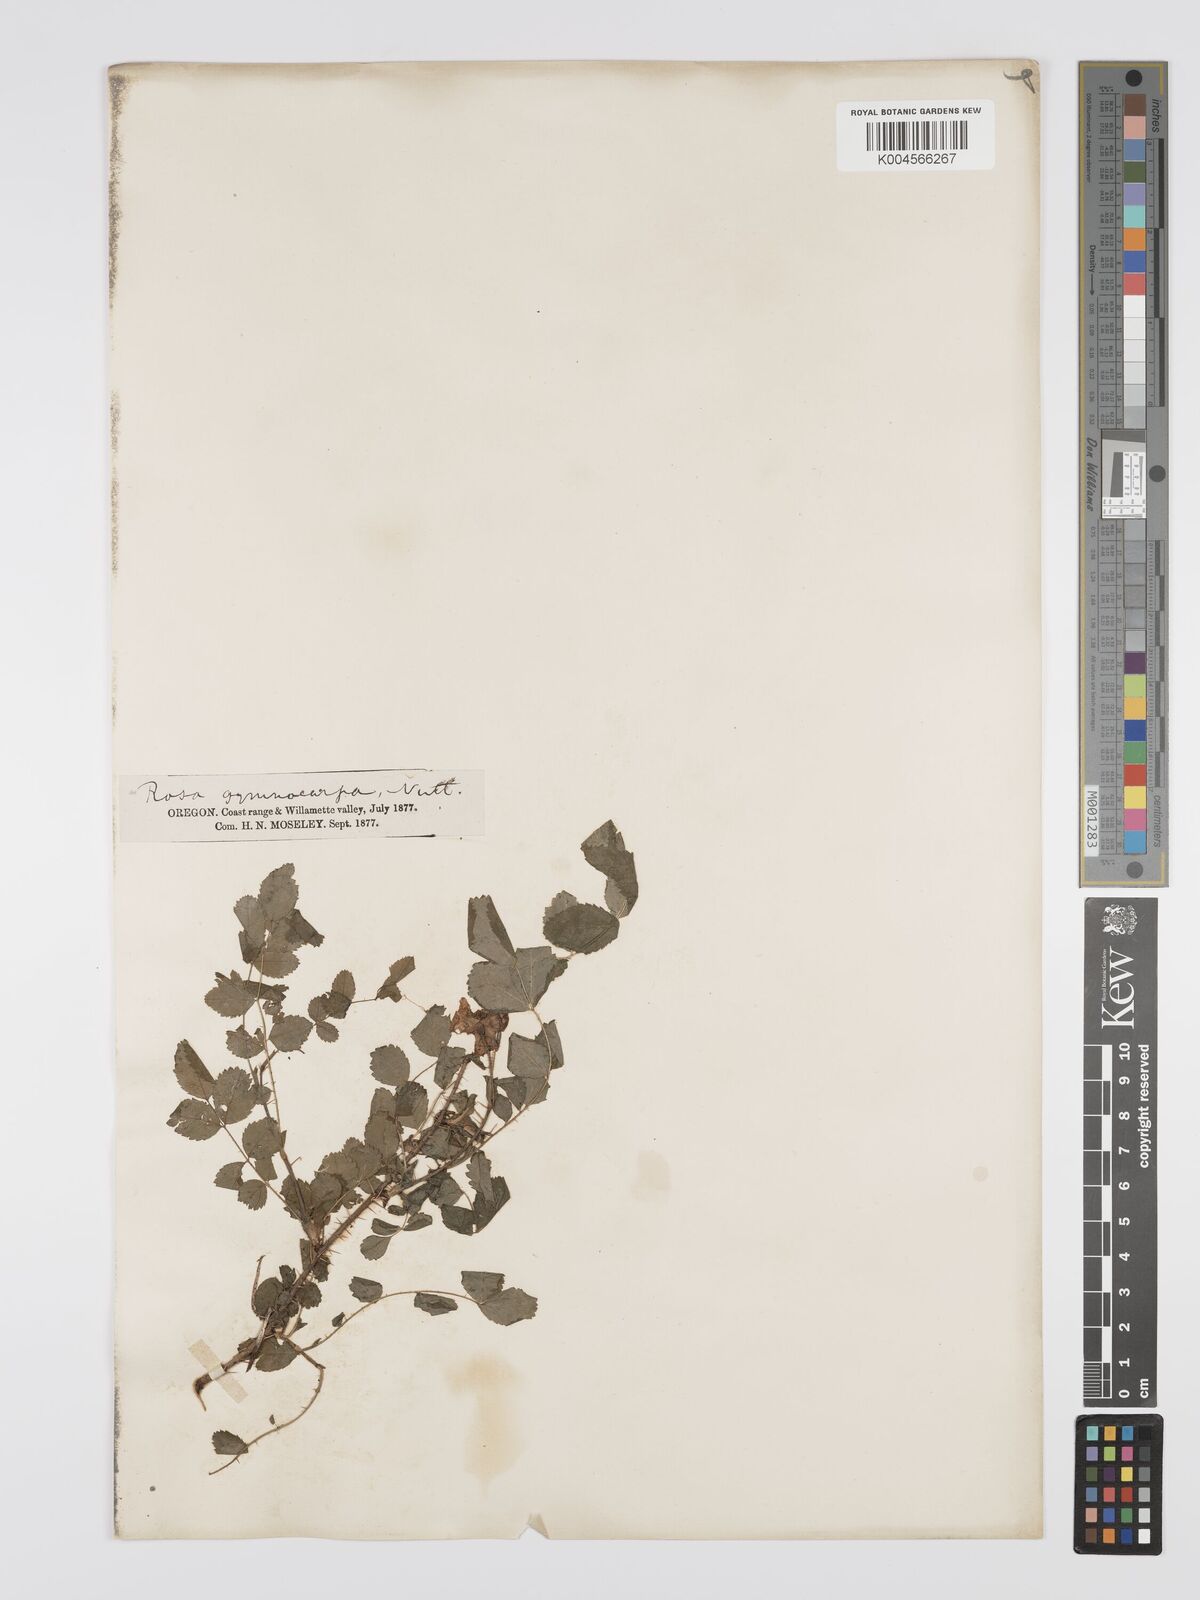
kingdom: Plantae
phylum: Tracheophyta
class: Magnoliopsida
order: Rosales
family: Rosaceae
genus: Rosa
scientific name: Rosa gymnocarpa
